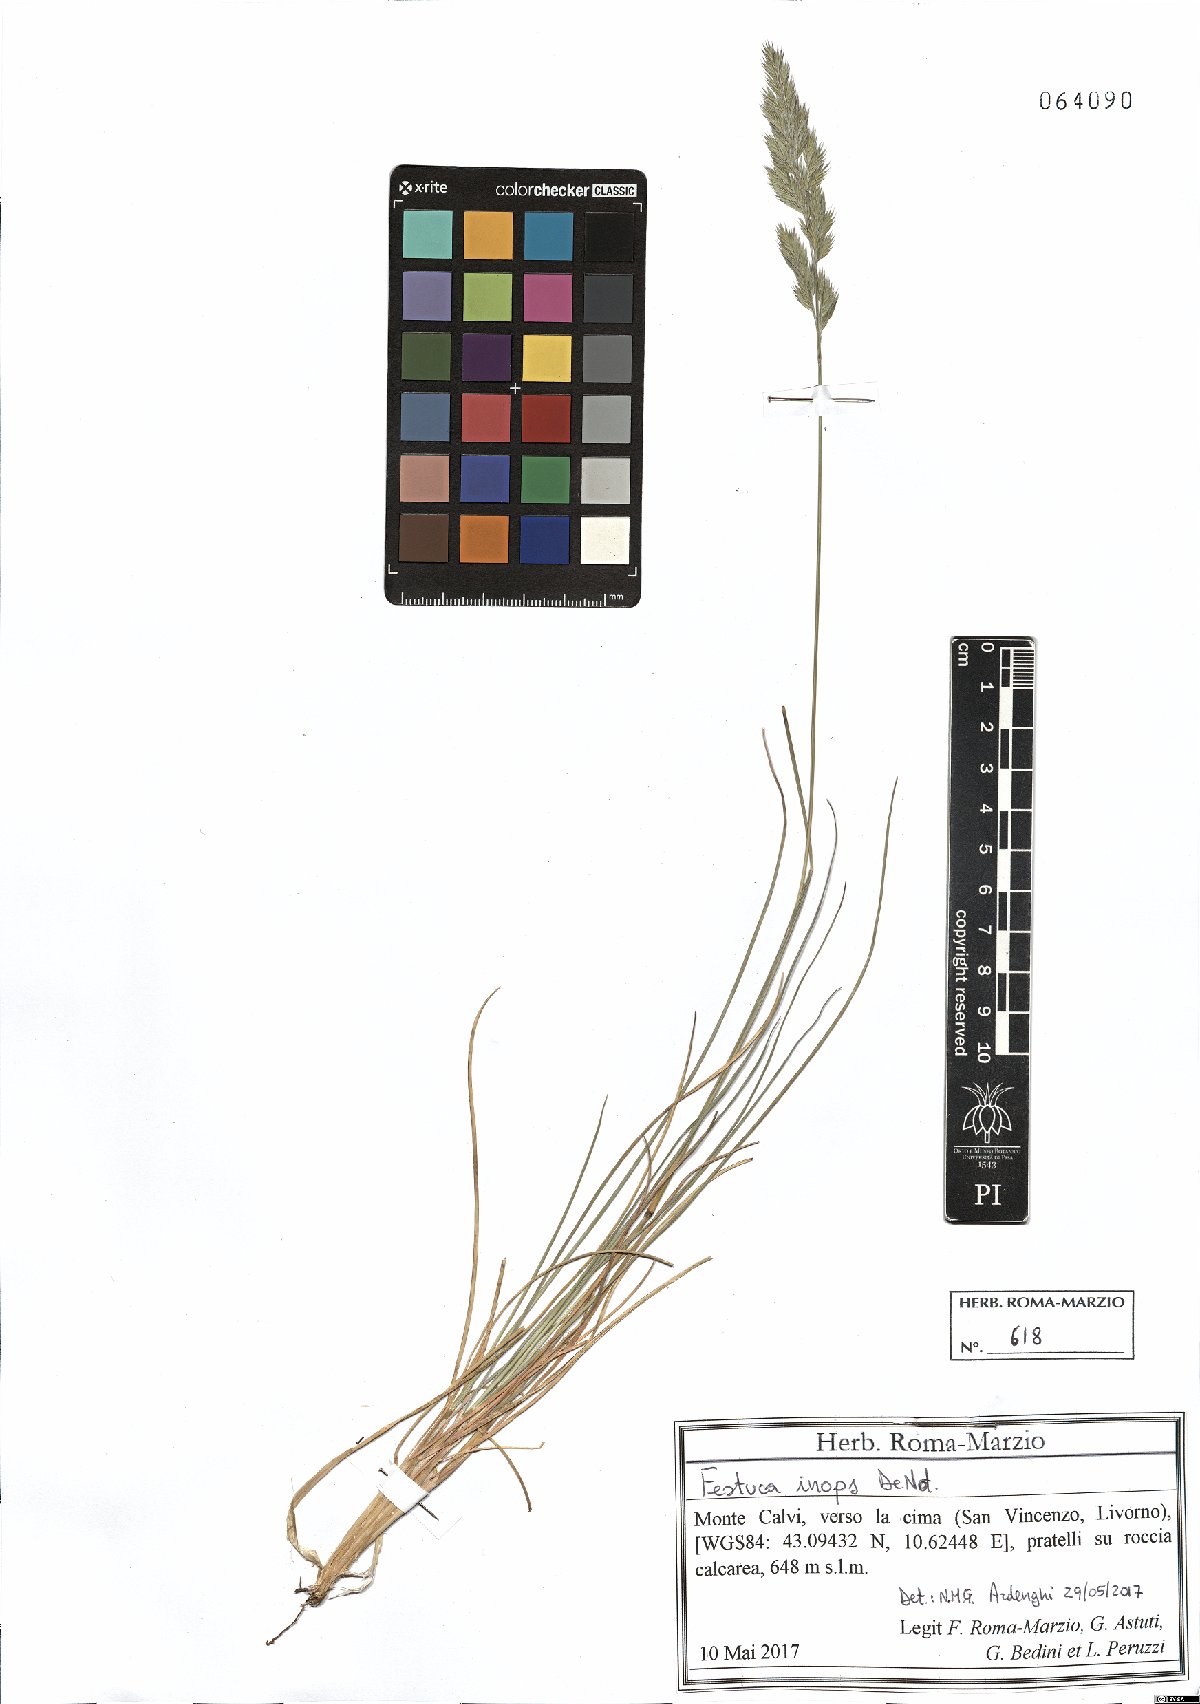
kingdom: Plantae
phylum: Tracheophyta
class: Liliopsida
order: Poales
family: Poaceae
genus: Festuca
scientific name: Festuca inops
